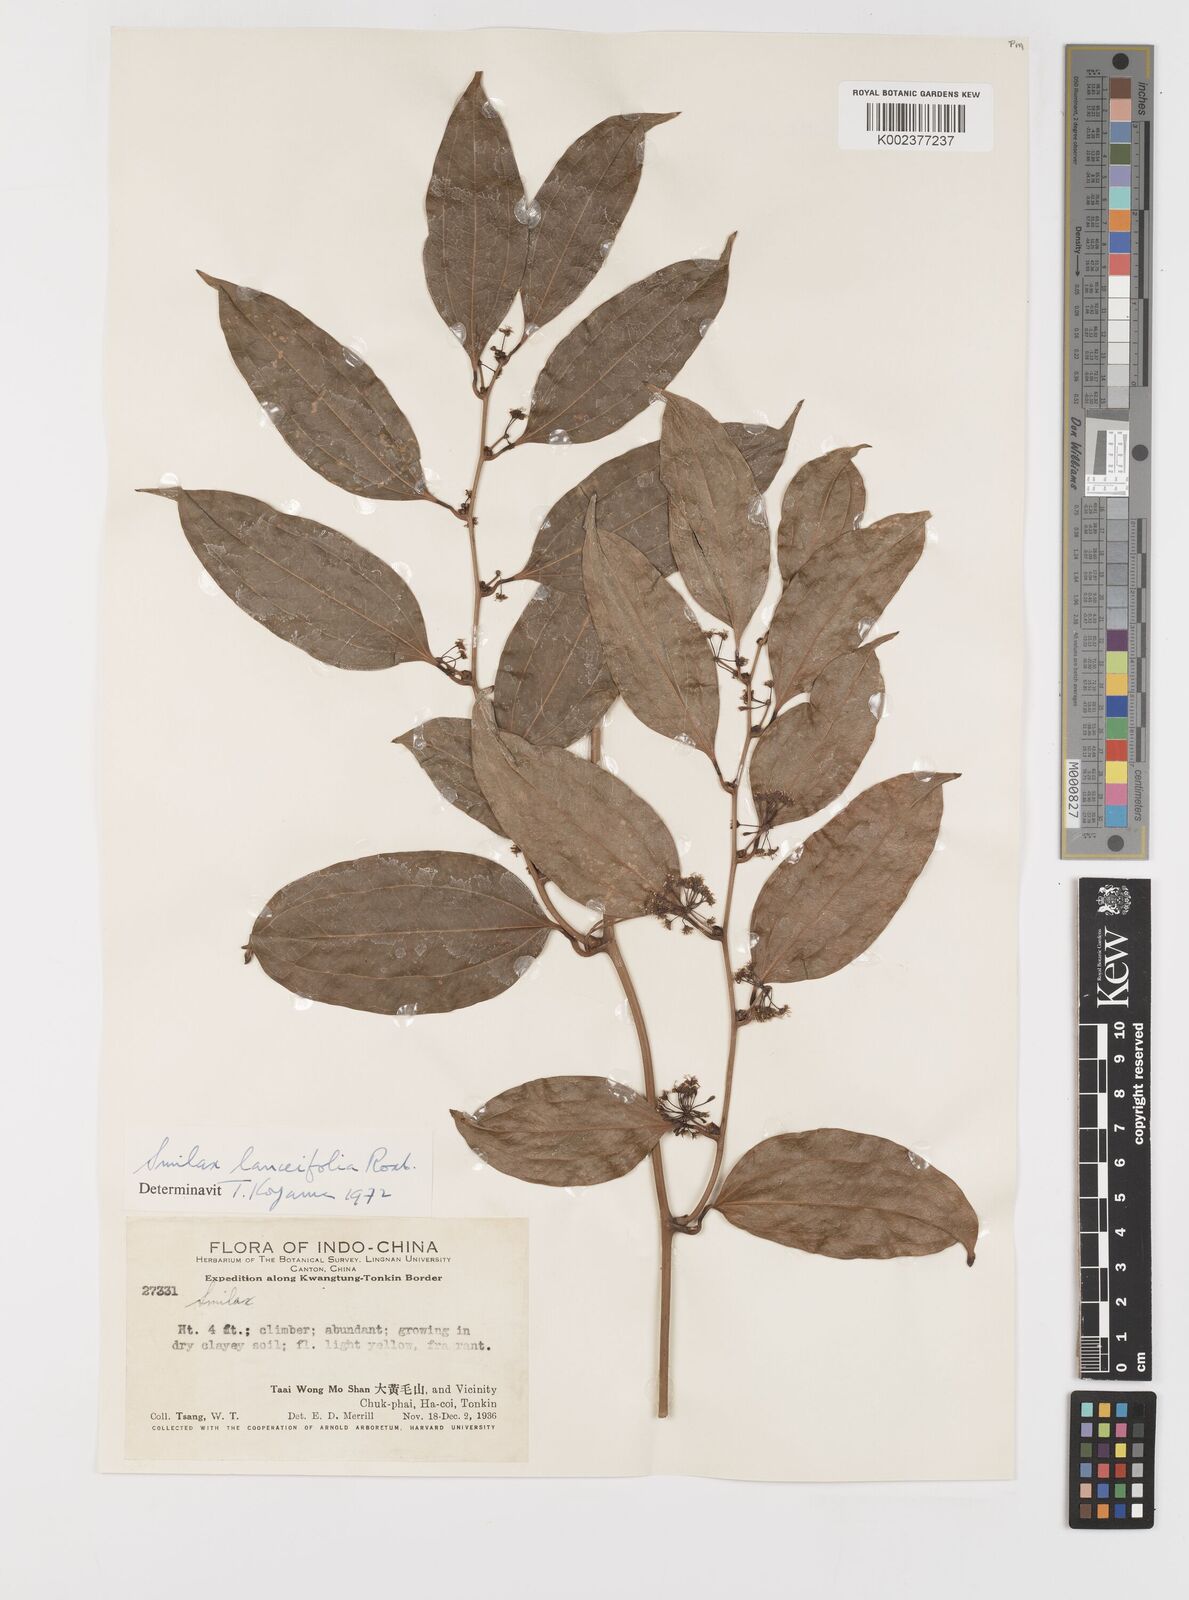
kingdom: Plantae
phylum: Tracheophyta
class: Liliopsida
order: Liliales
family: Smilacaceae
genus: Smilax
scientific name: Smilax lanceifolia
